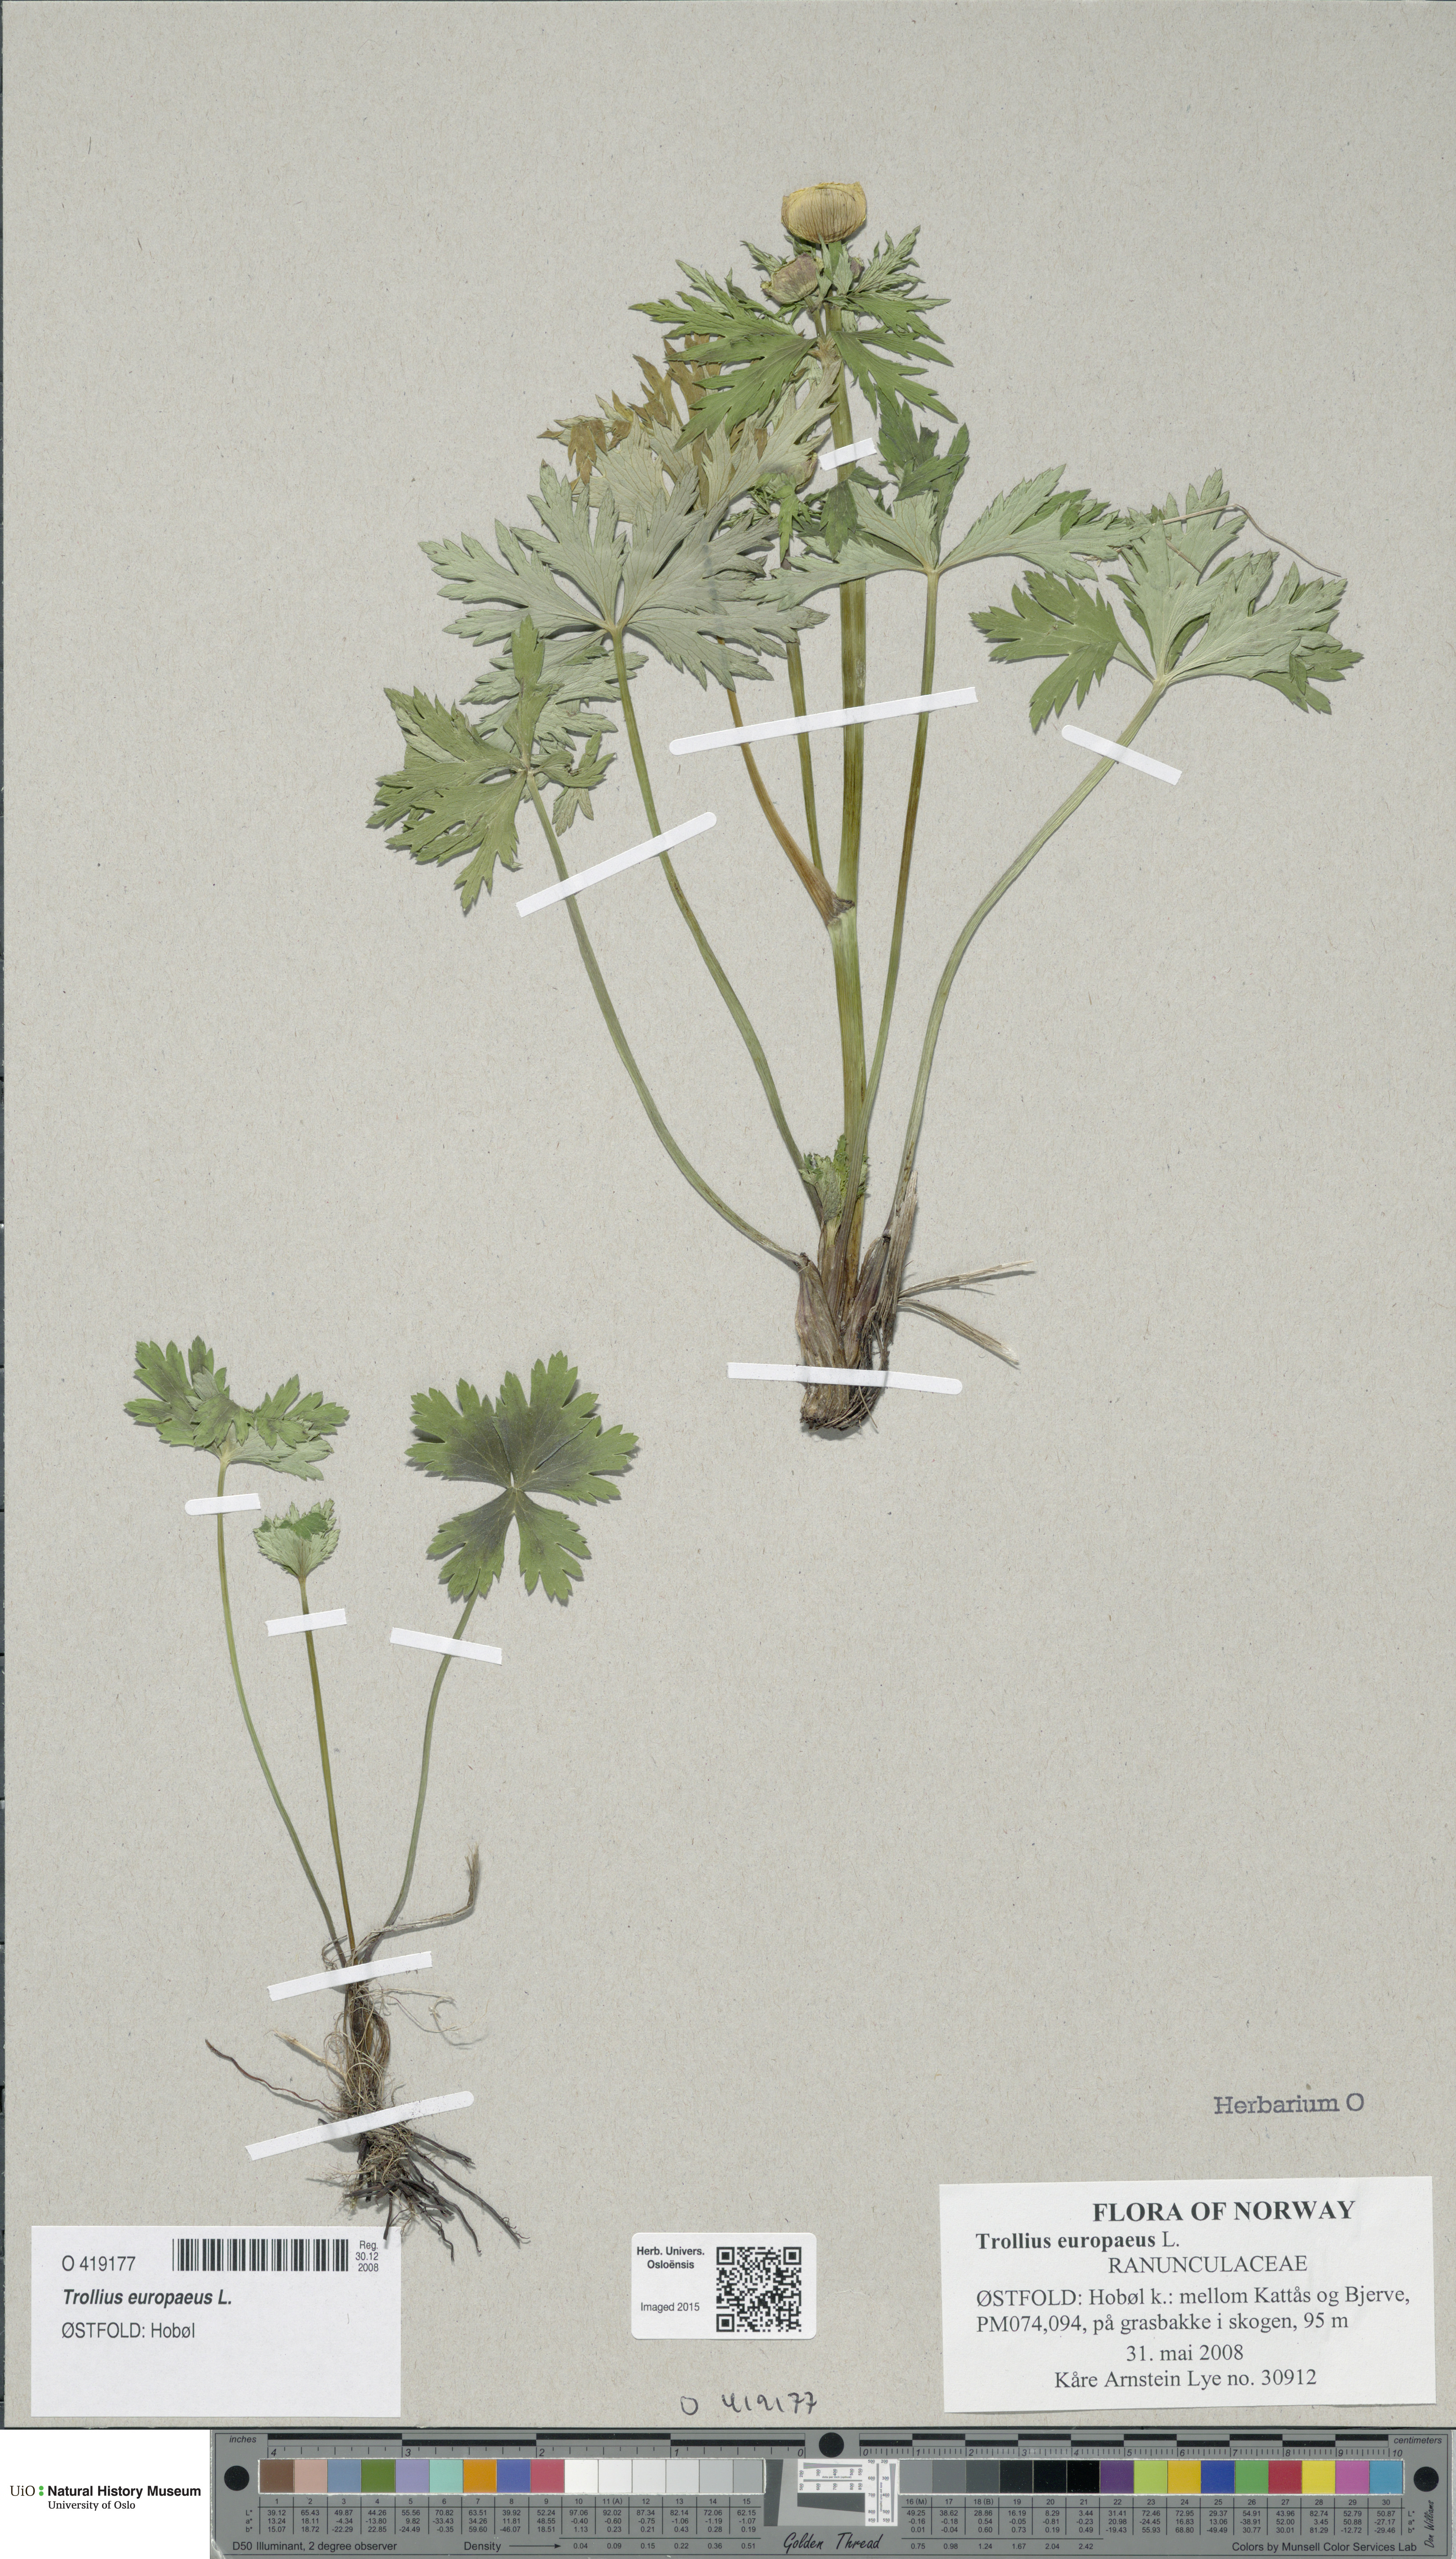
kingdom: Plantae
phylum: Tracheophyta
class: Magnoliopsida
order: Ranunculales
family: Ranunculaceae
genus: Trollius
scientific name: Trollius europaeus
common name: European globeflower
